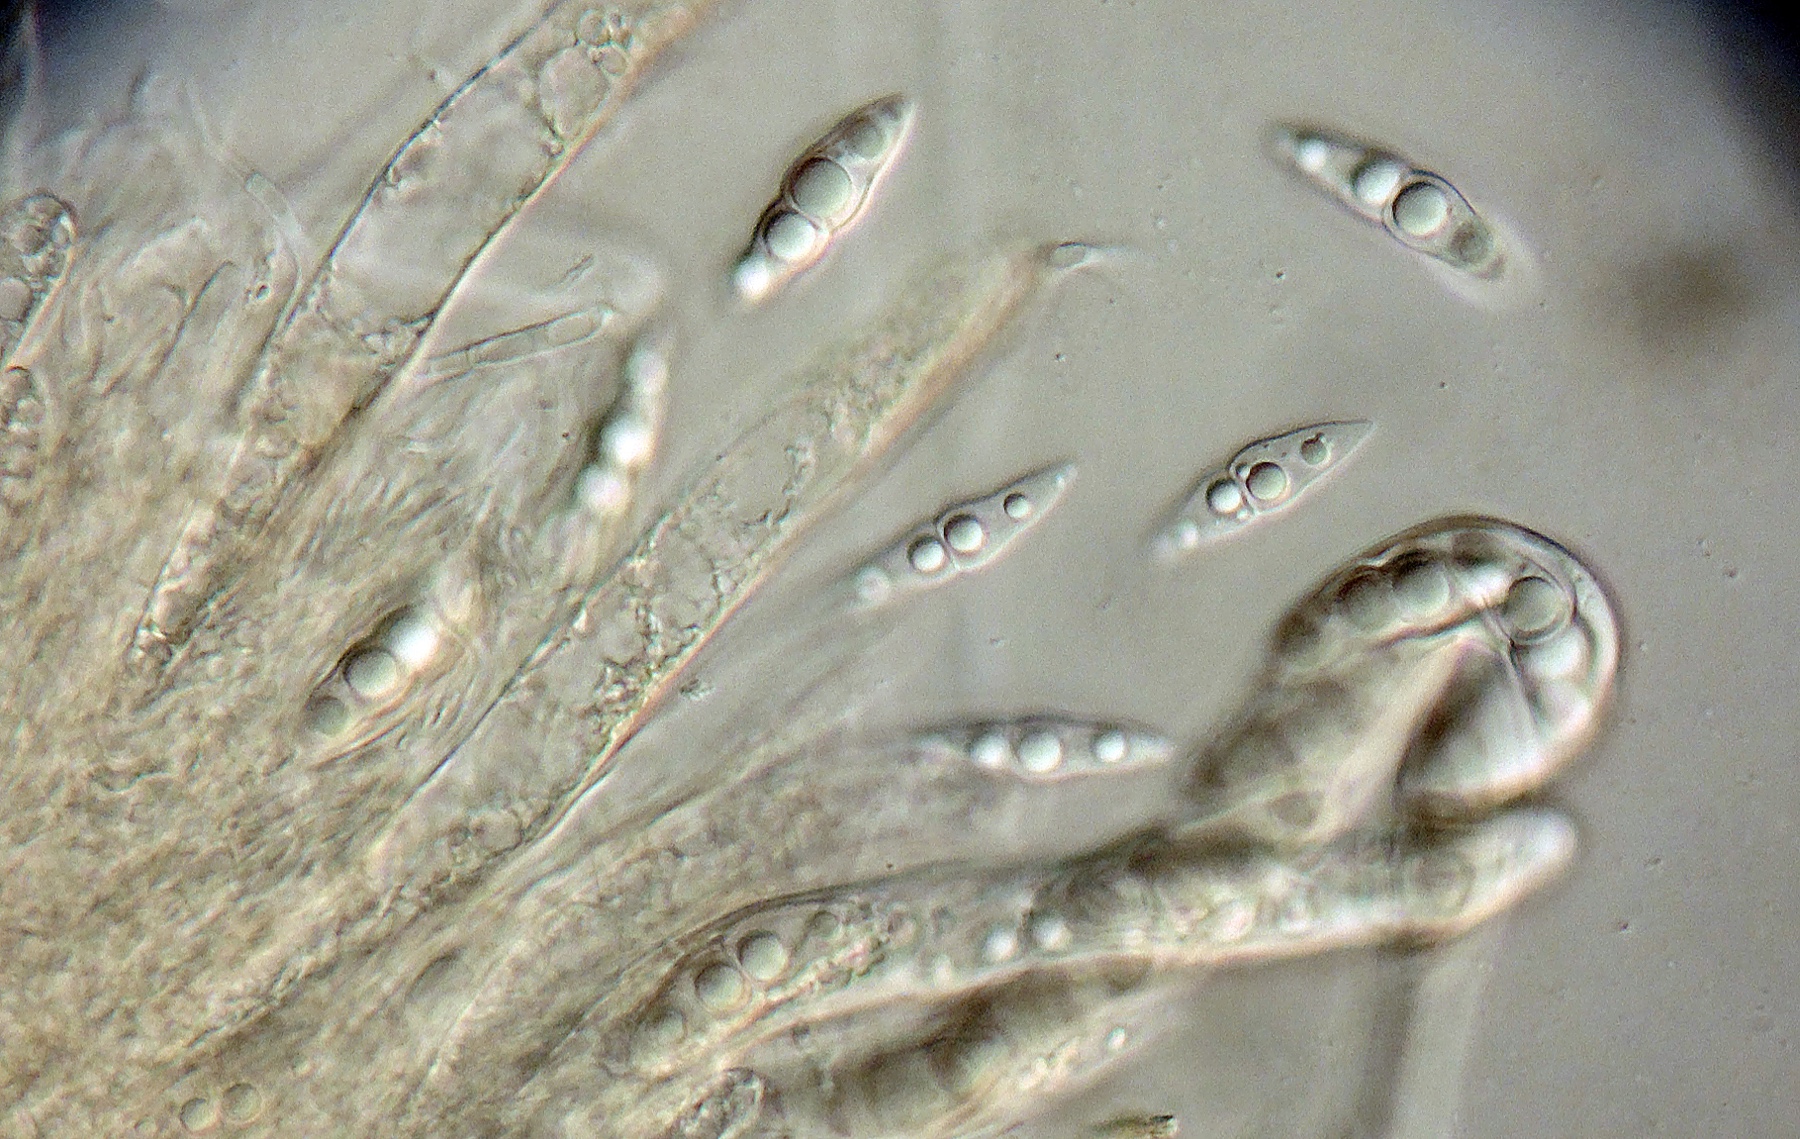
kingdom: Plantae
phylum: Bryophyta
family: Dothideomycetes
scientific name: Dothideomycetes
